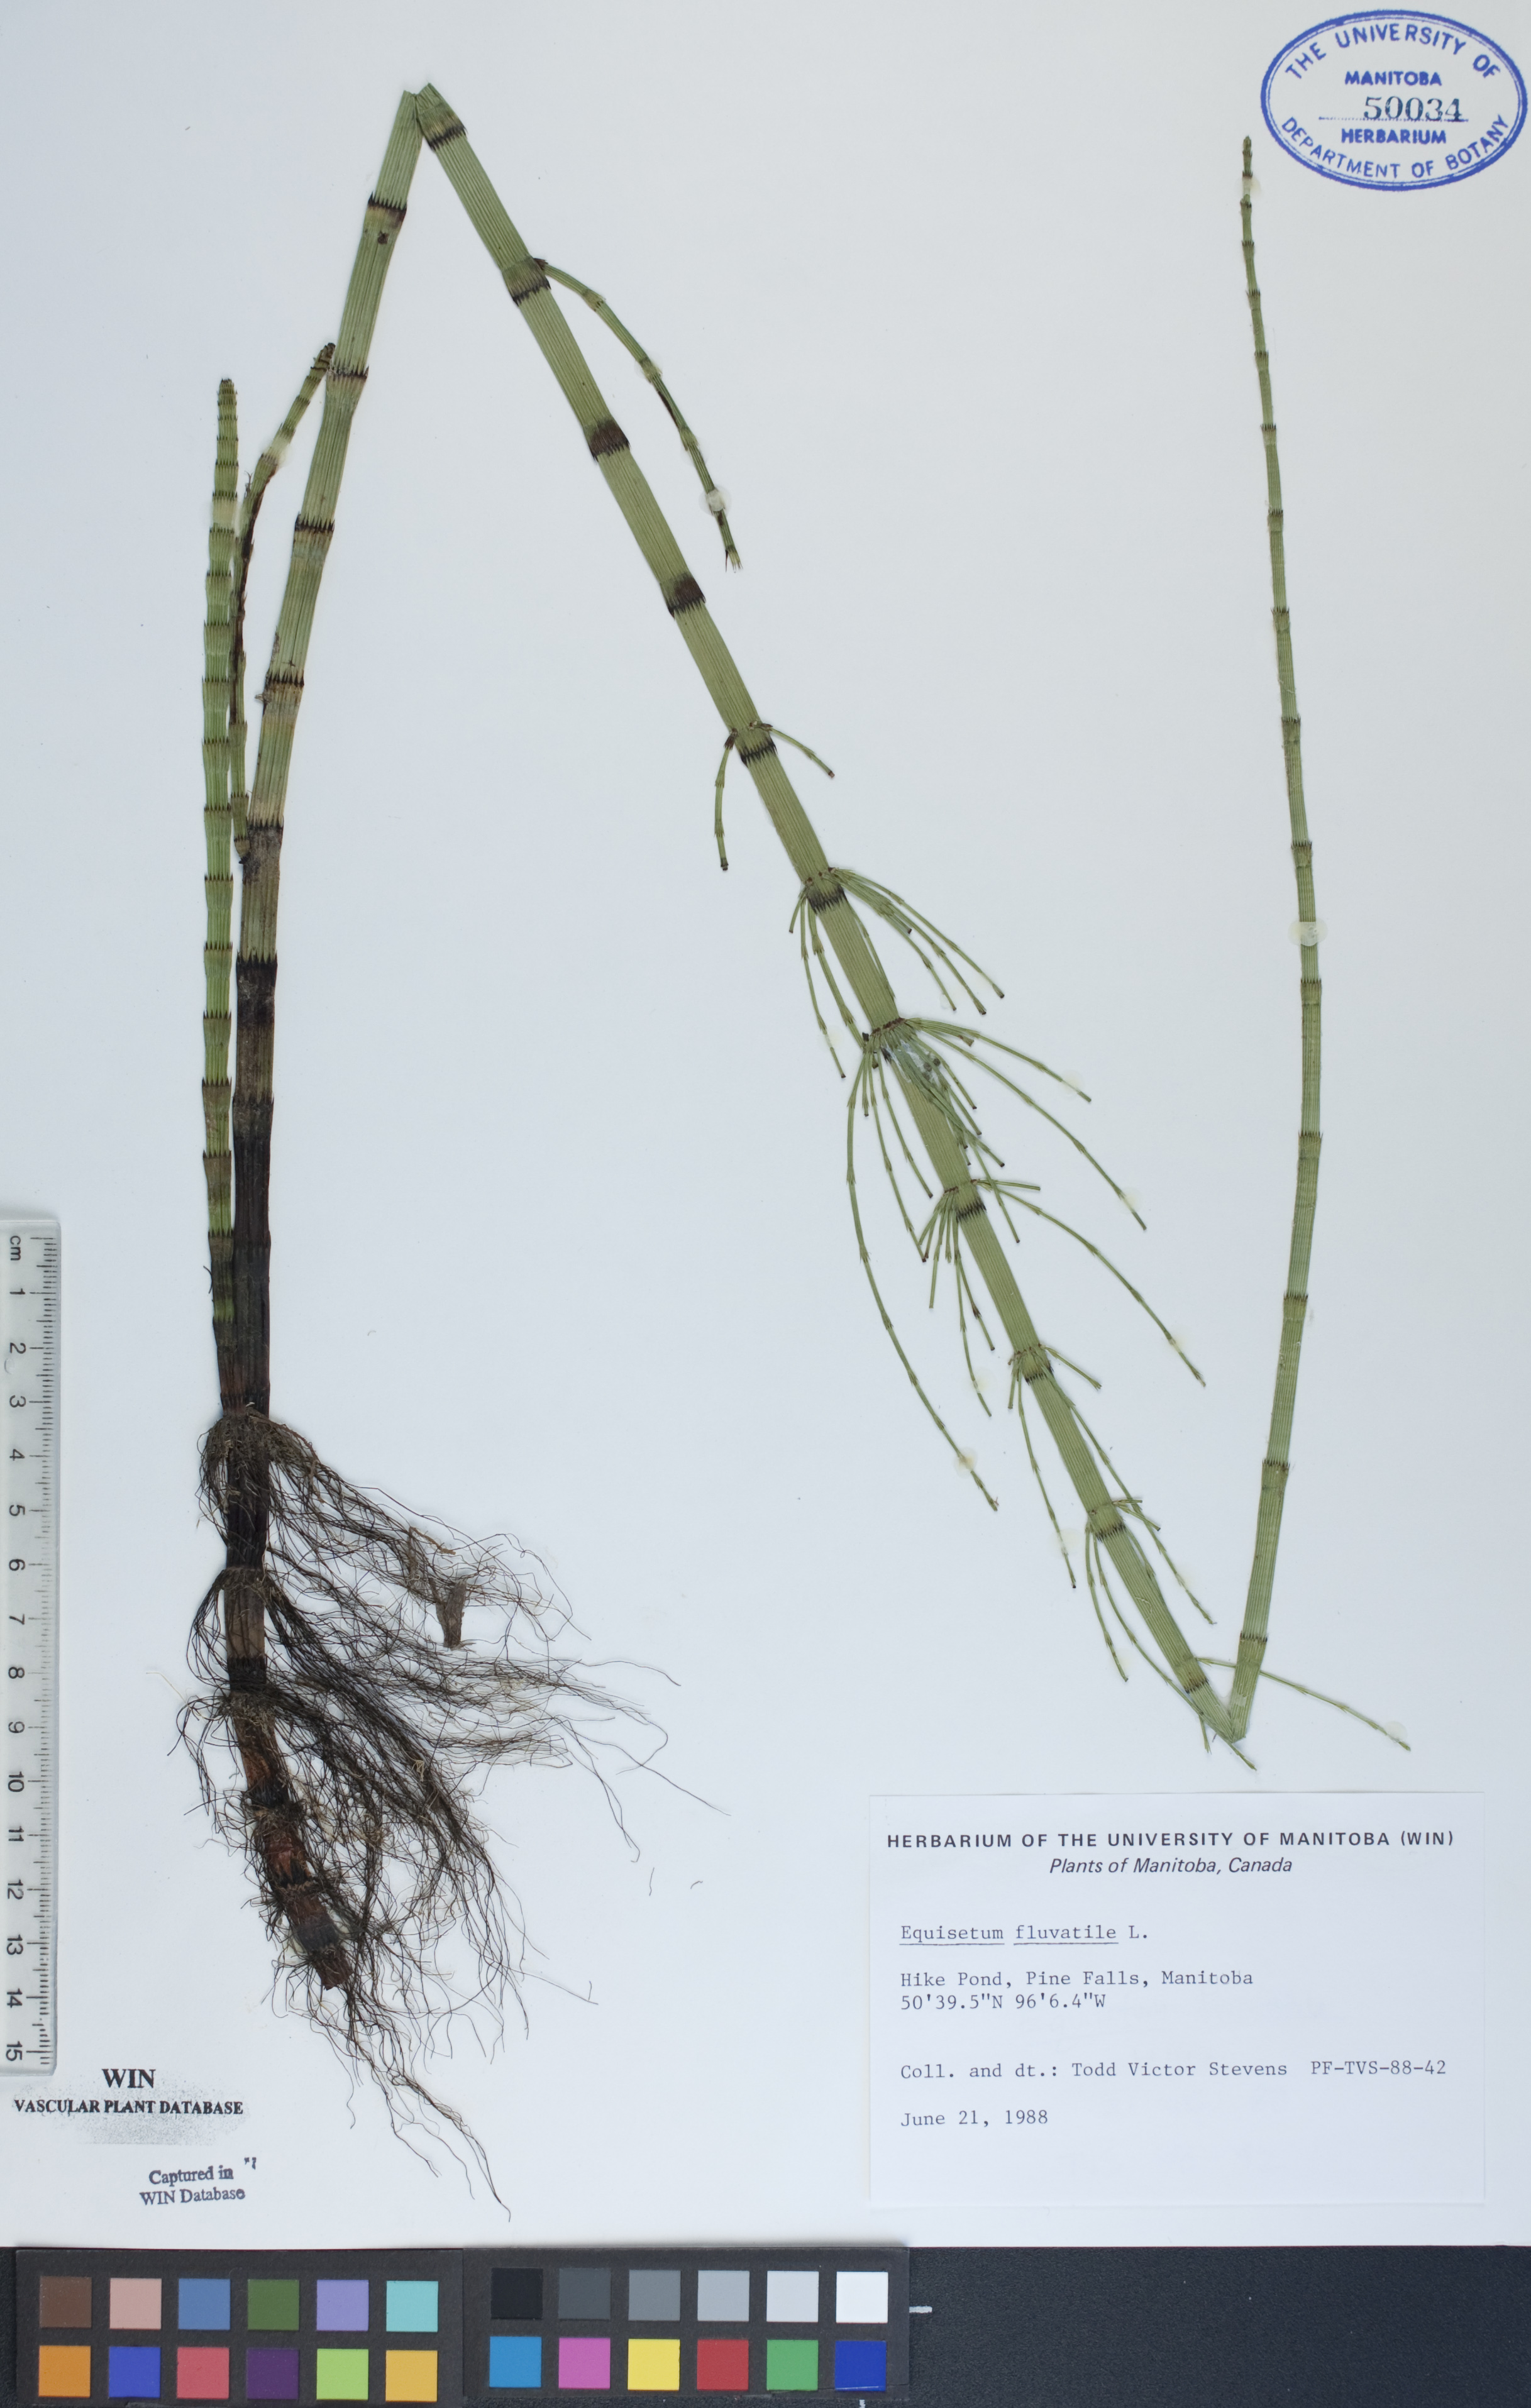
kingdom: Plantae
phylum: Tracheophyta
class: Polypodiopsida
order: Equisetales
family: Equisetaceae
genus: Equisetum
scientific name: Equisetum fluviatile
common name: Water horsetail
